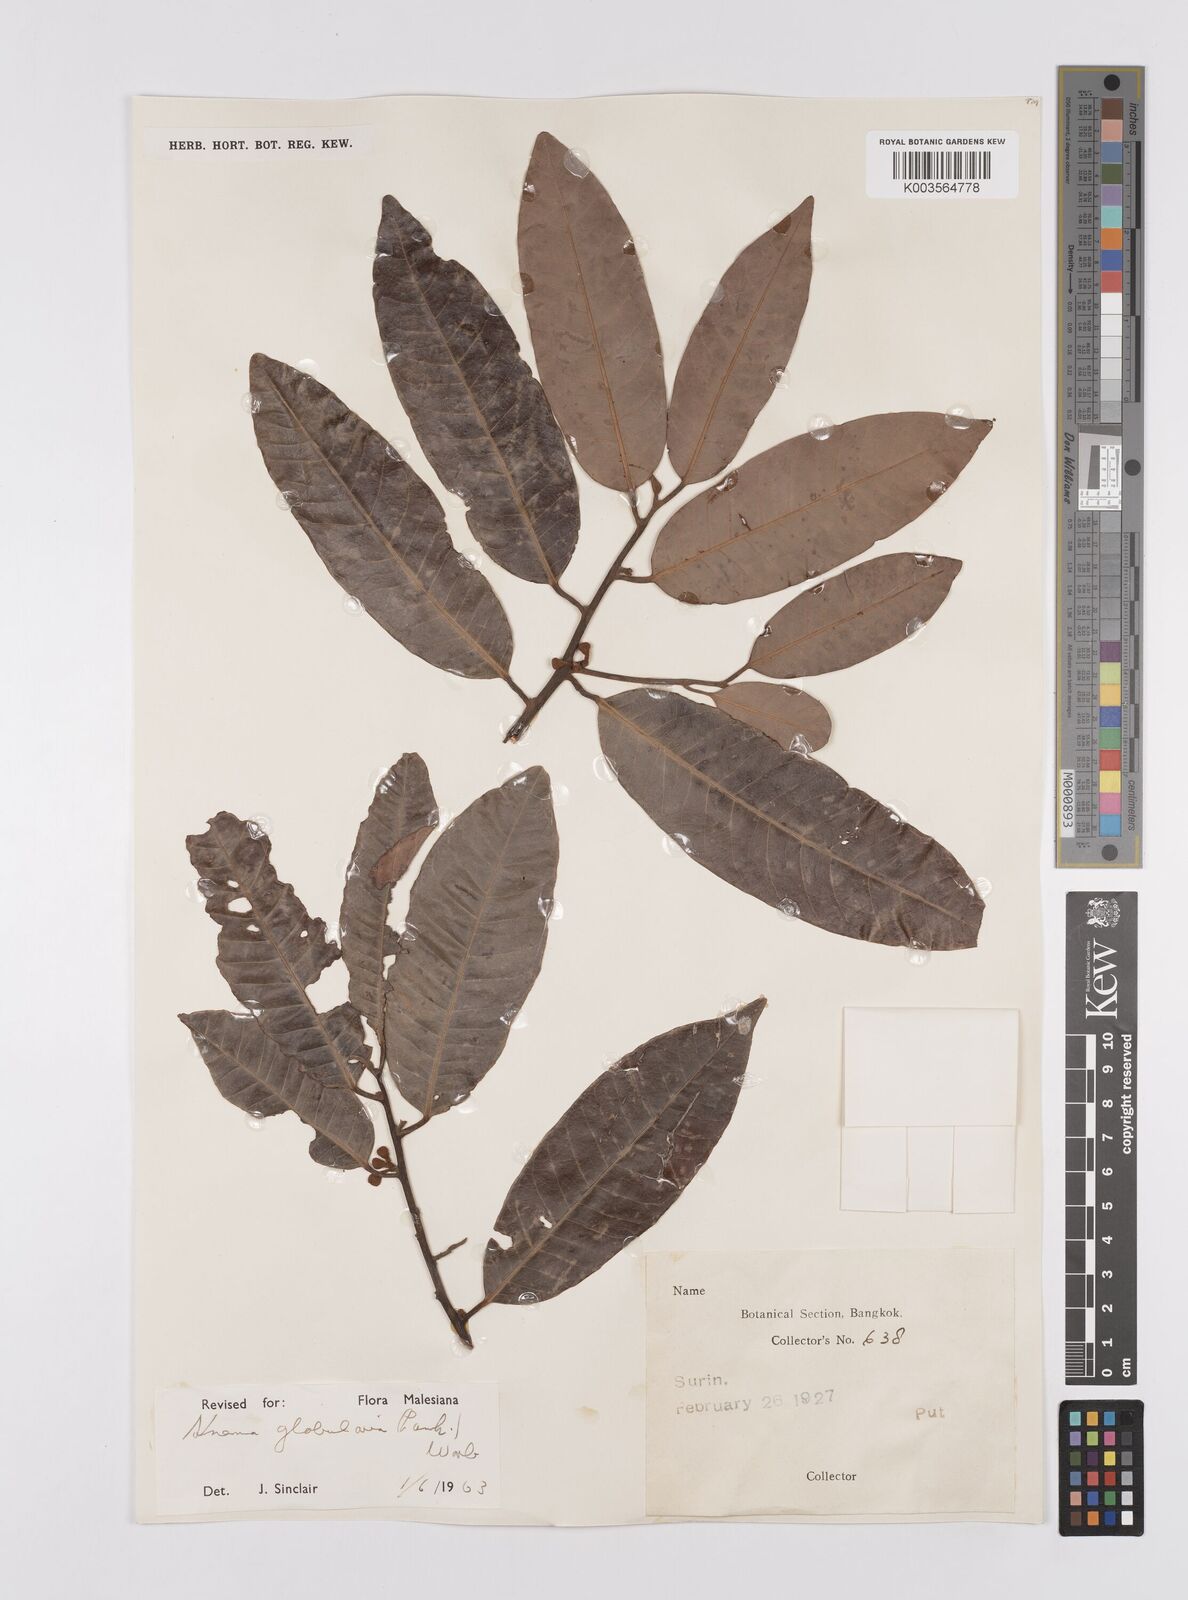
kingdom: Plantae
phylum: Tracheophyta
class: Magnoliopsida
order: Magnoliales
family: Myristicaceae
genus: Knema
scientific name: Knema globularia
